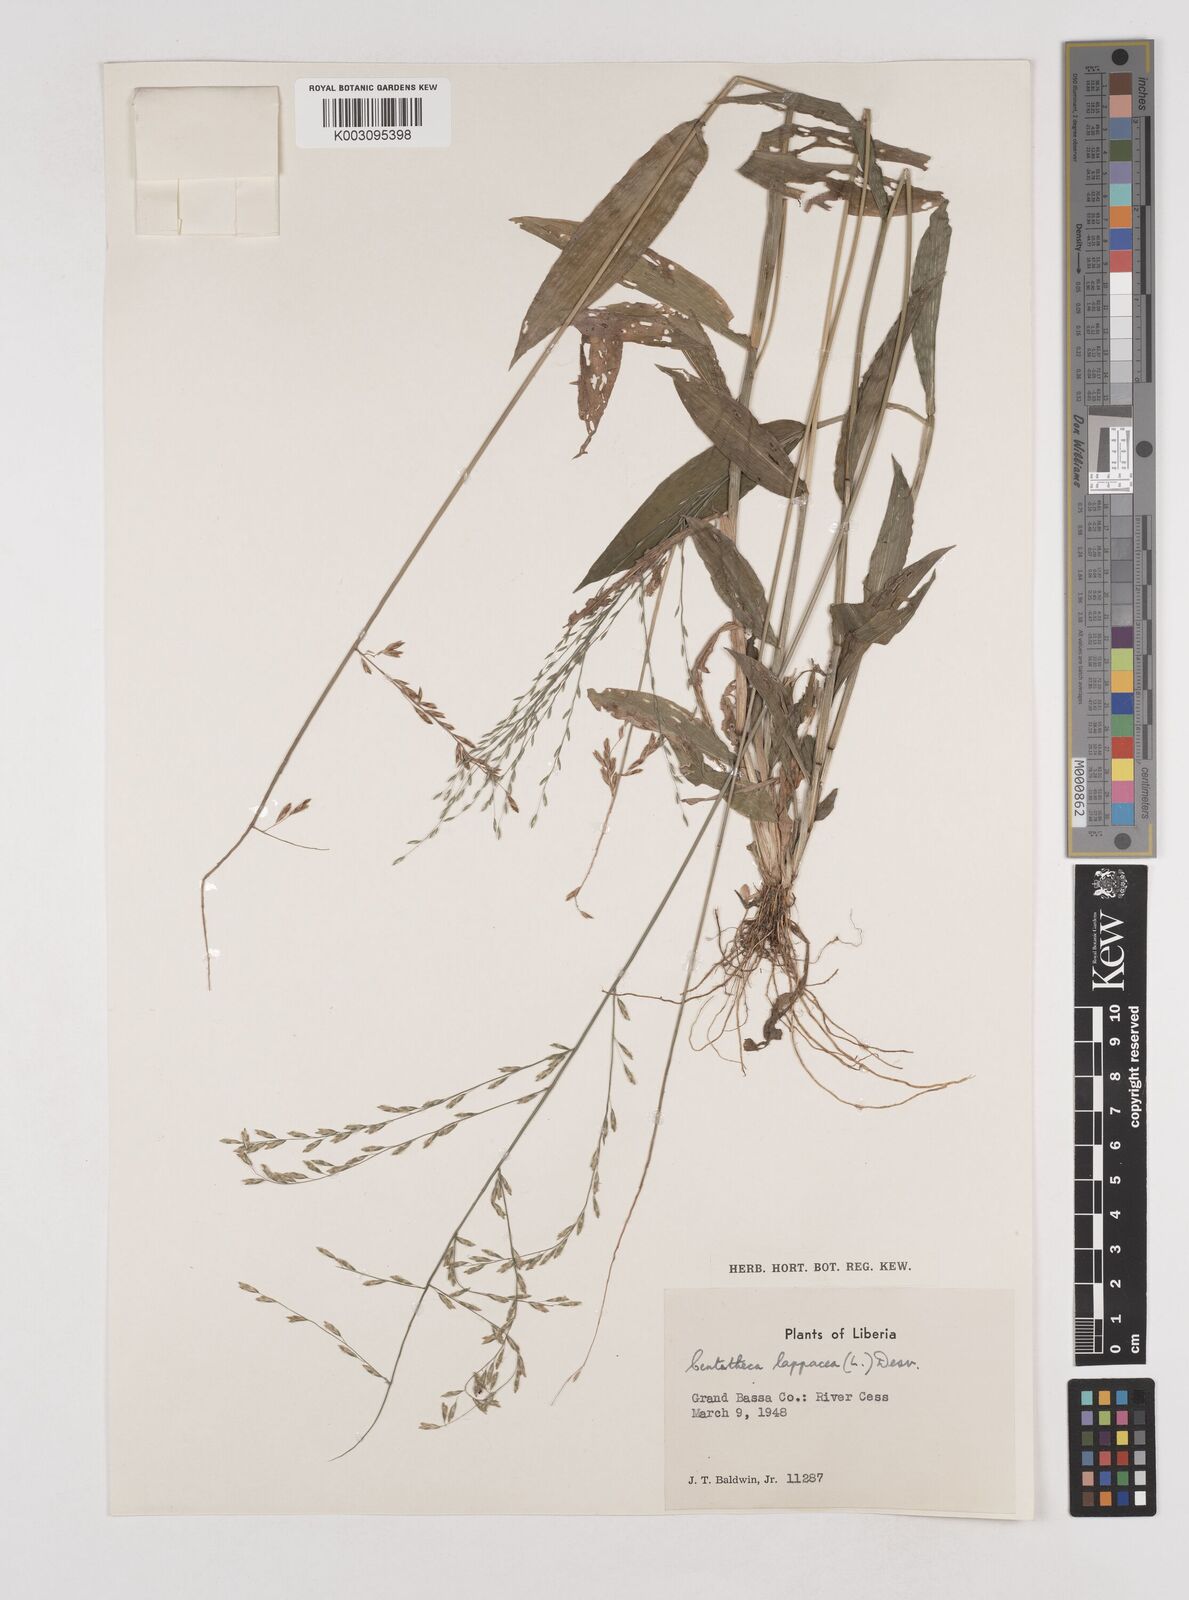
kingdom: Plantae
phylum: Tracheophyta
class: Liliopsida
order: Poales
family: Poaceae
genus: Centotheca
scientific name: Centotheca lappacea
